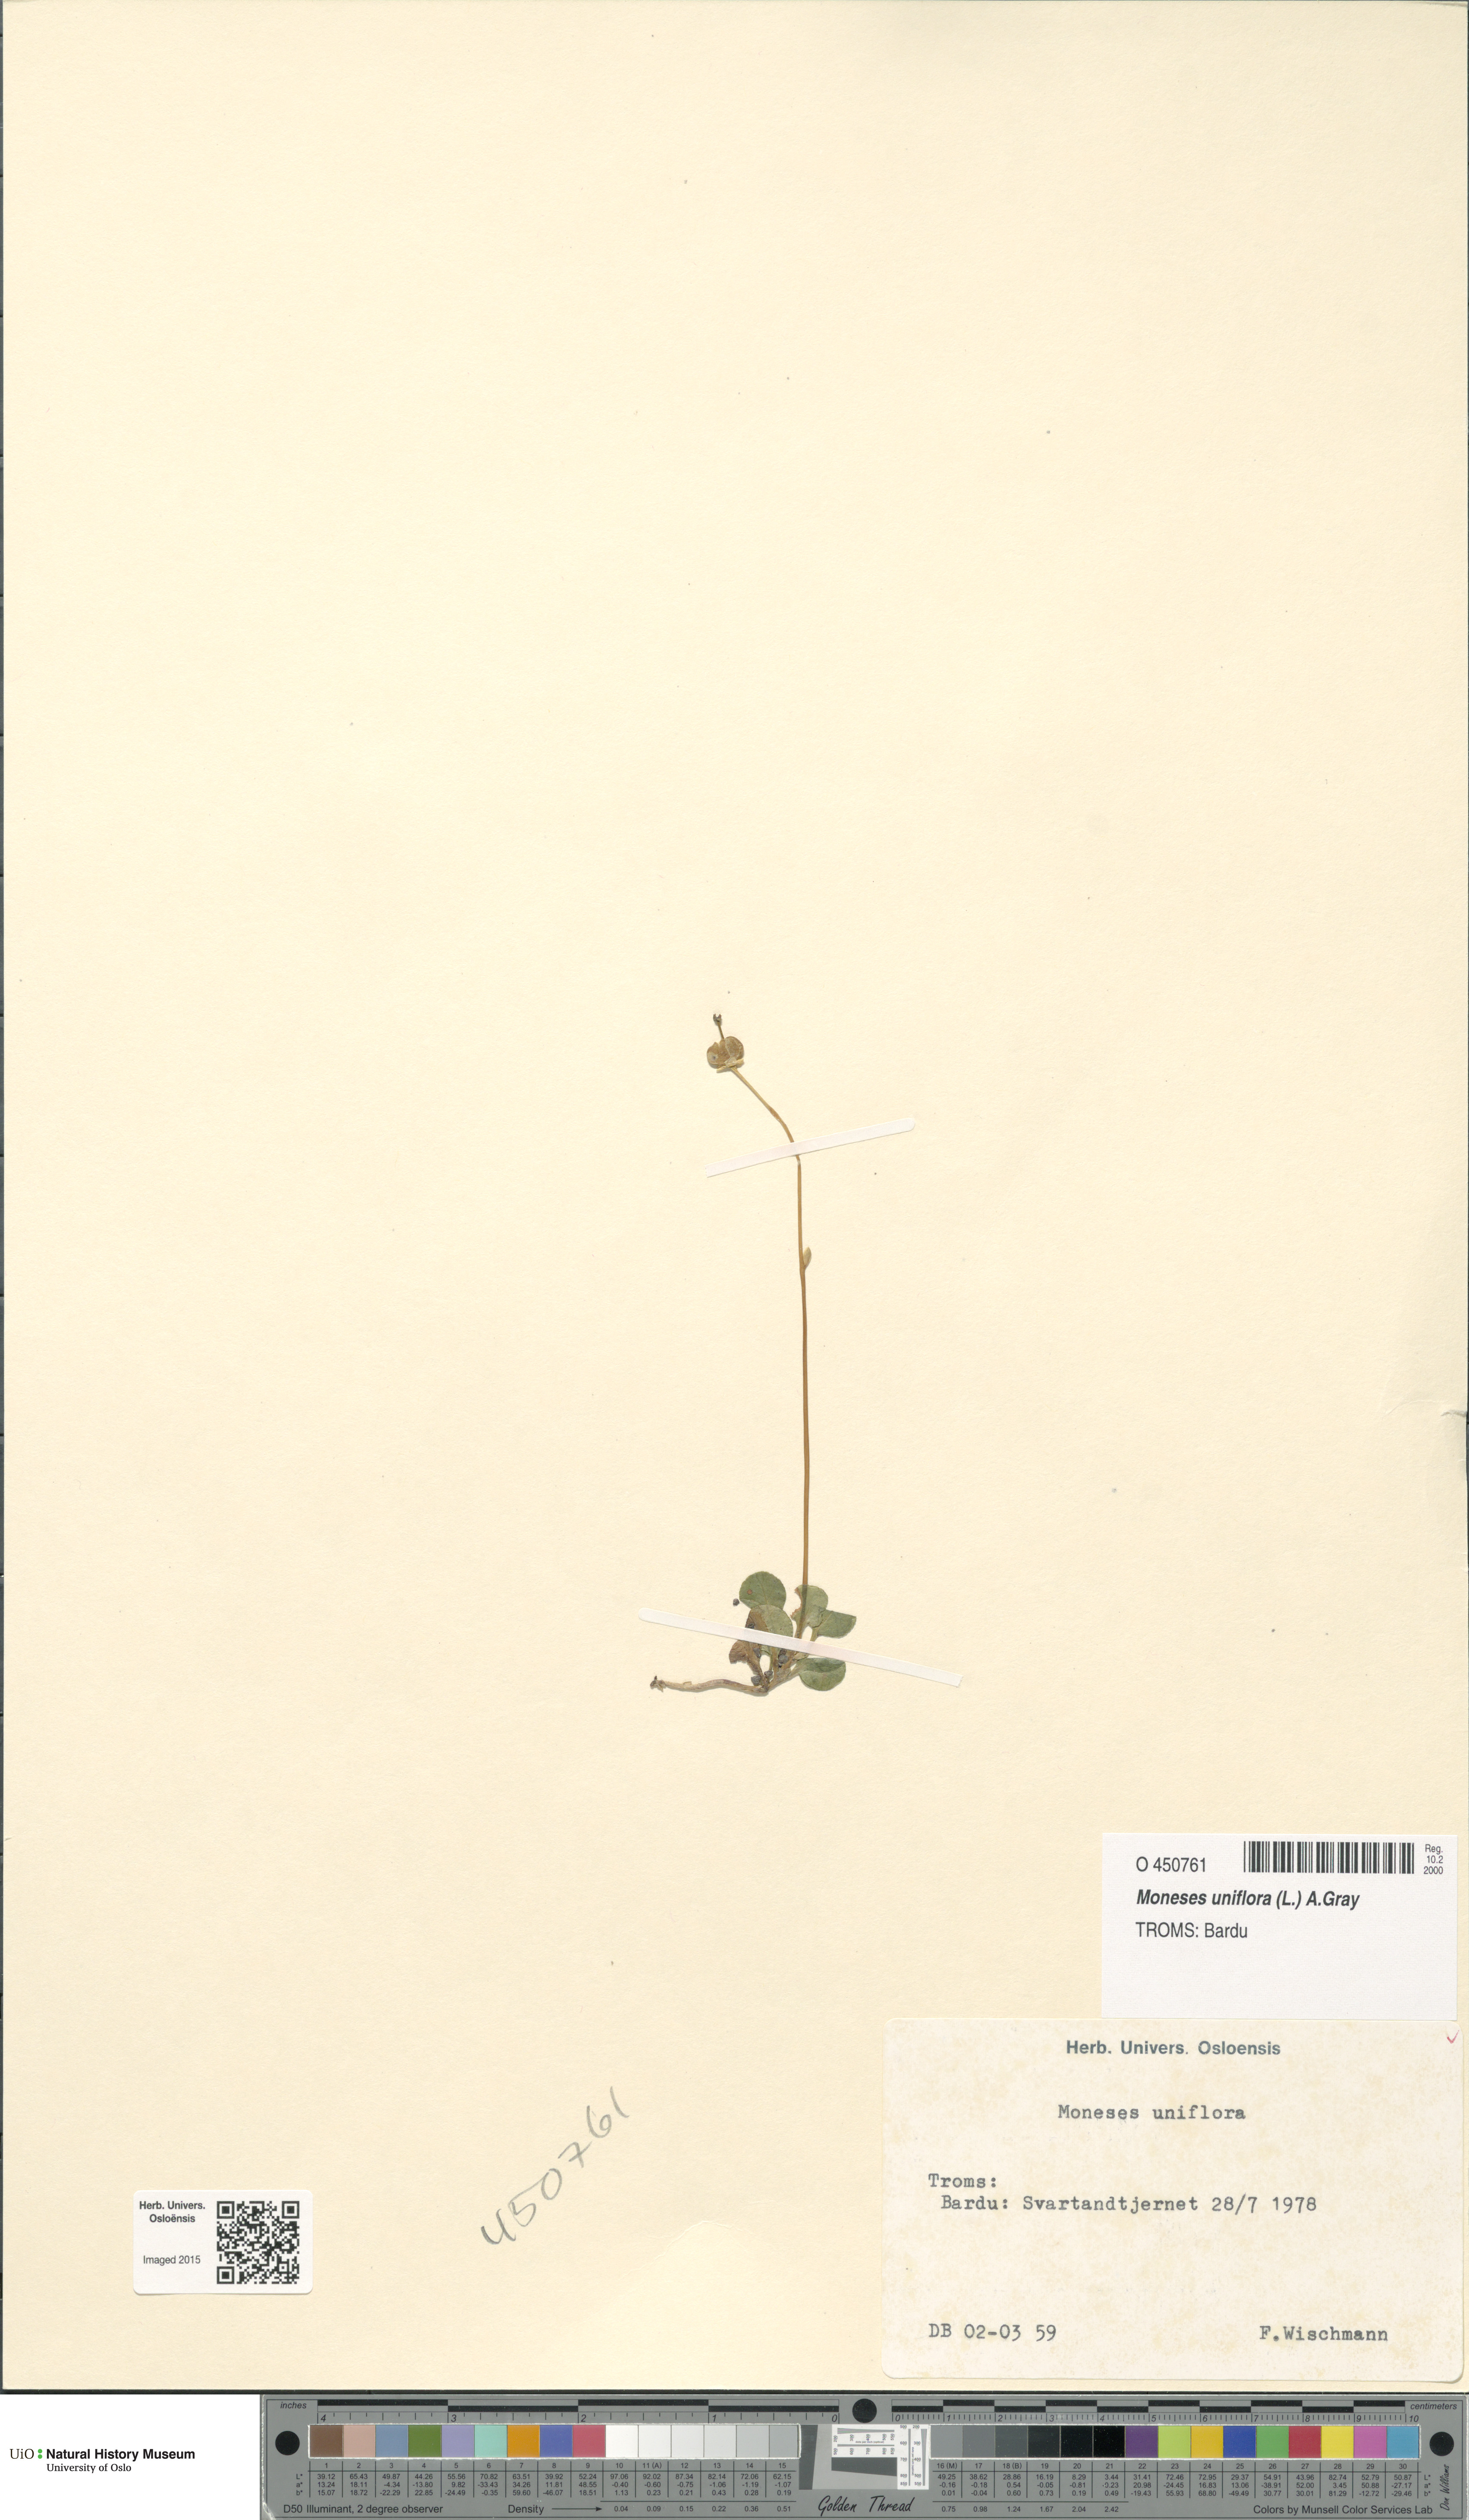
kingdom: Plantae
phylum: Tracheophyta
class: Magnoliopsida
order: Ericales
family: Ericaceae
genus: Moneses
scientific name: Moneses uniflora
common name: One-flowered wintergreen
